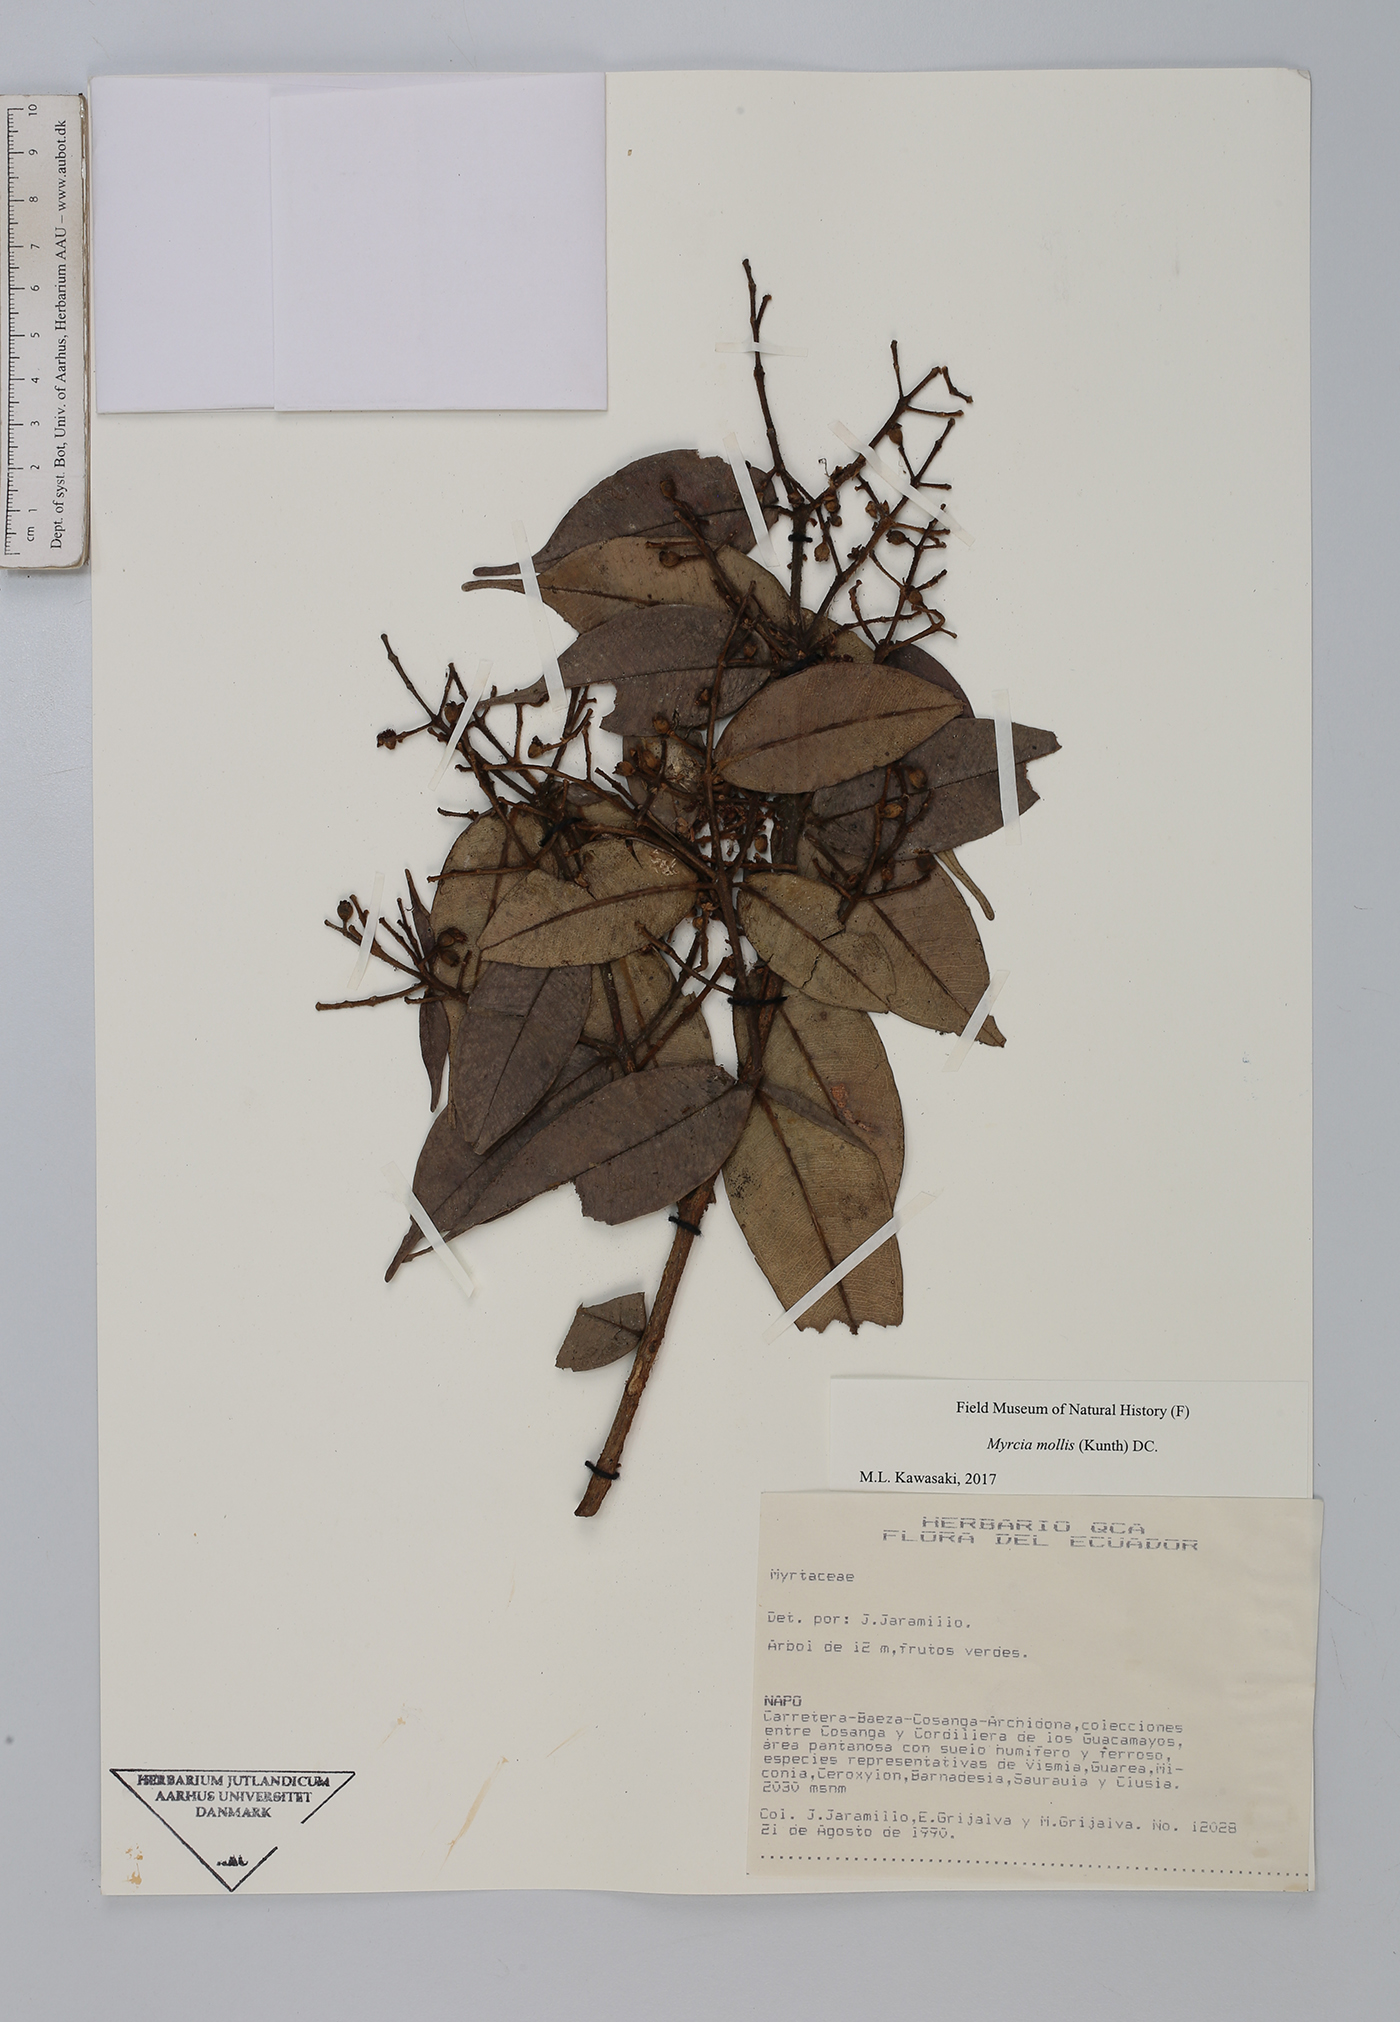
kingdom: Plantae
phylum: Tracheophyta
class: Magnoliopsida
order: Myrtales
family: Myrtaceae
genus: Myrcia
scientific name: Myrcia mollis
